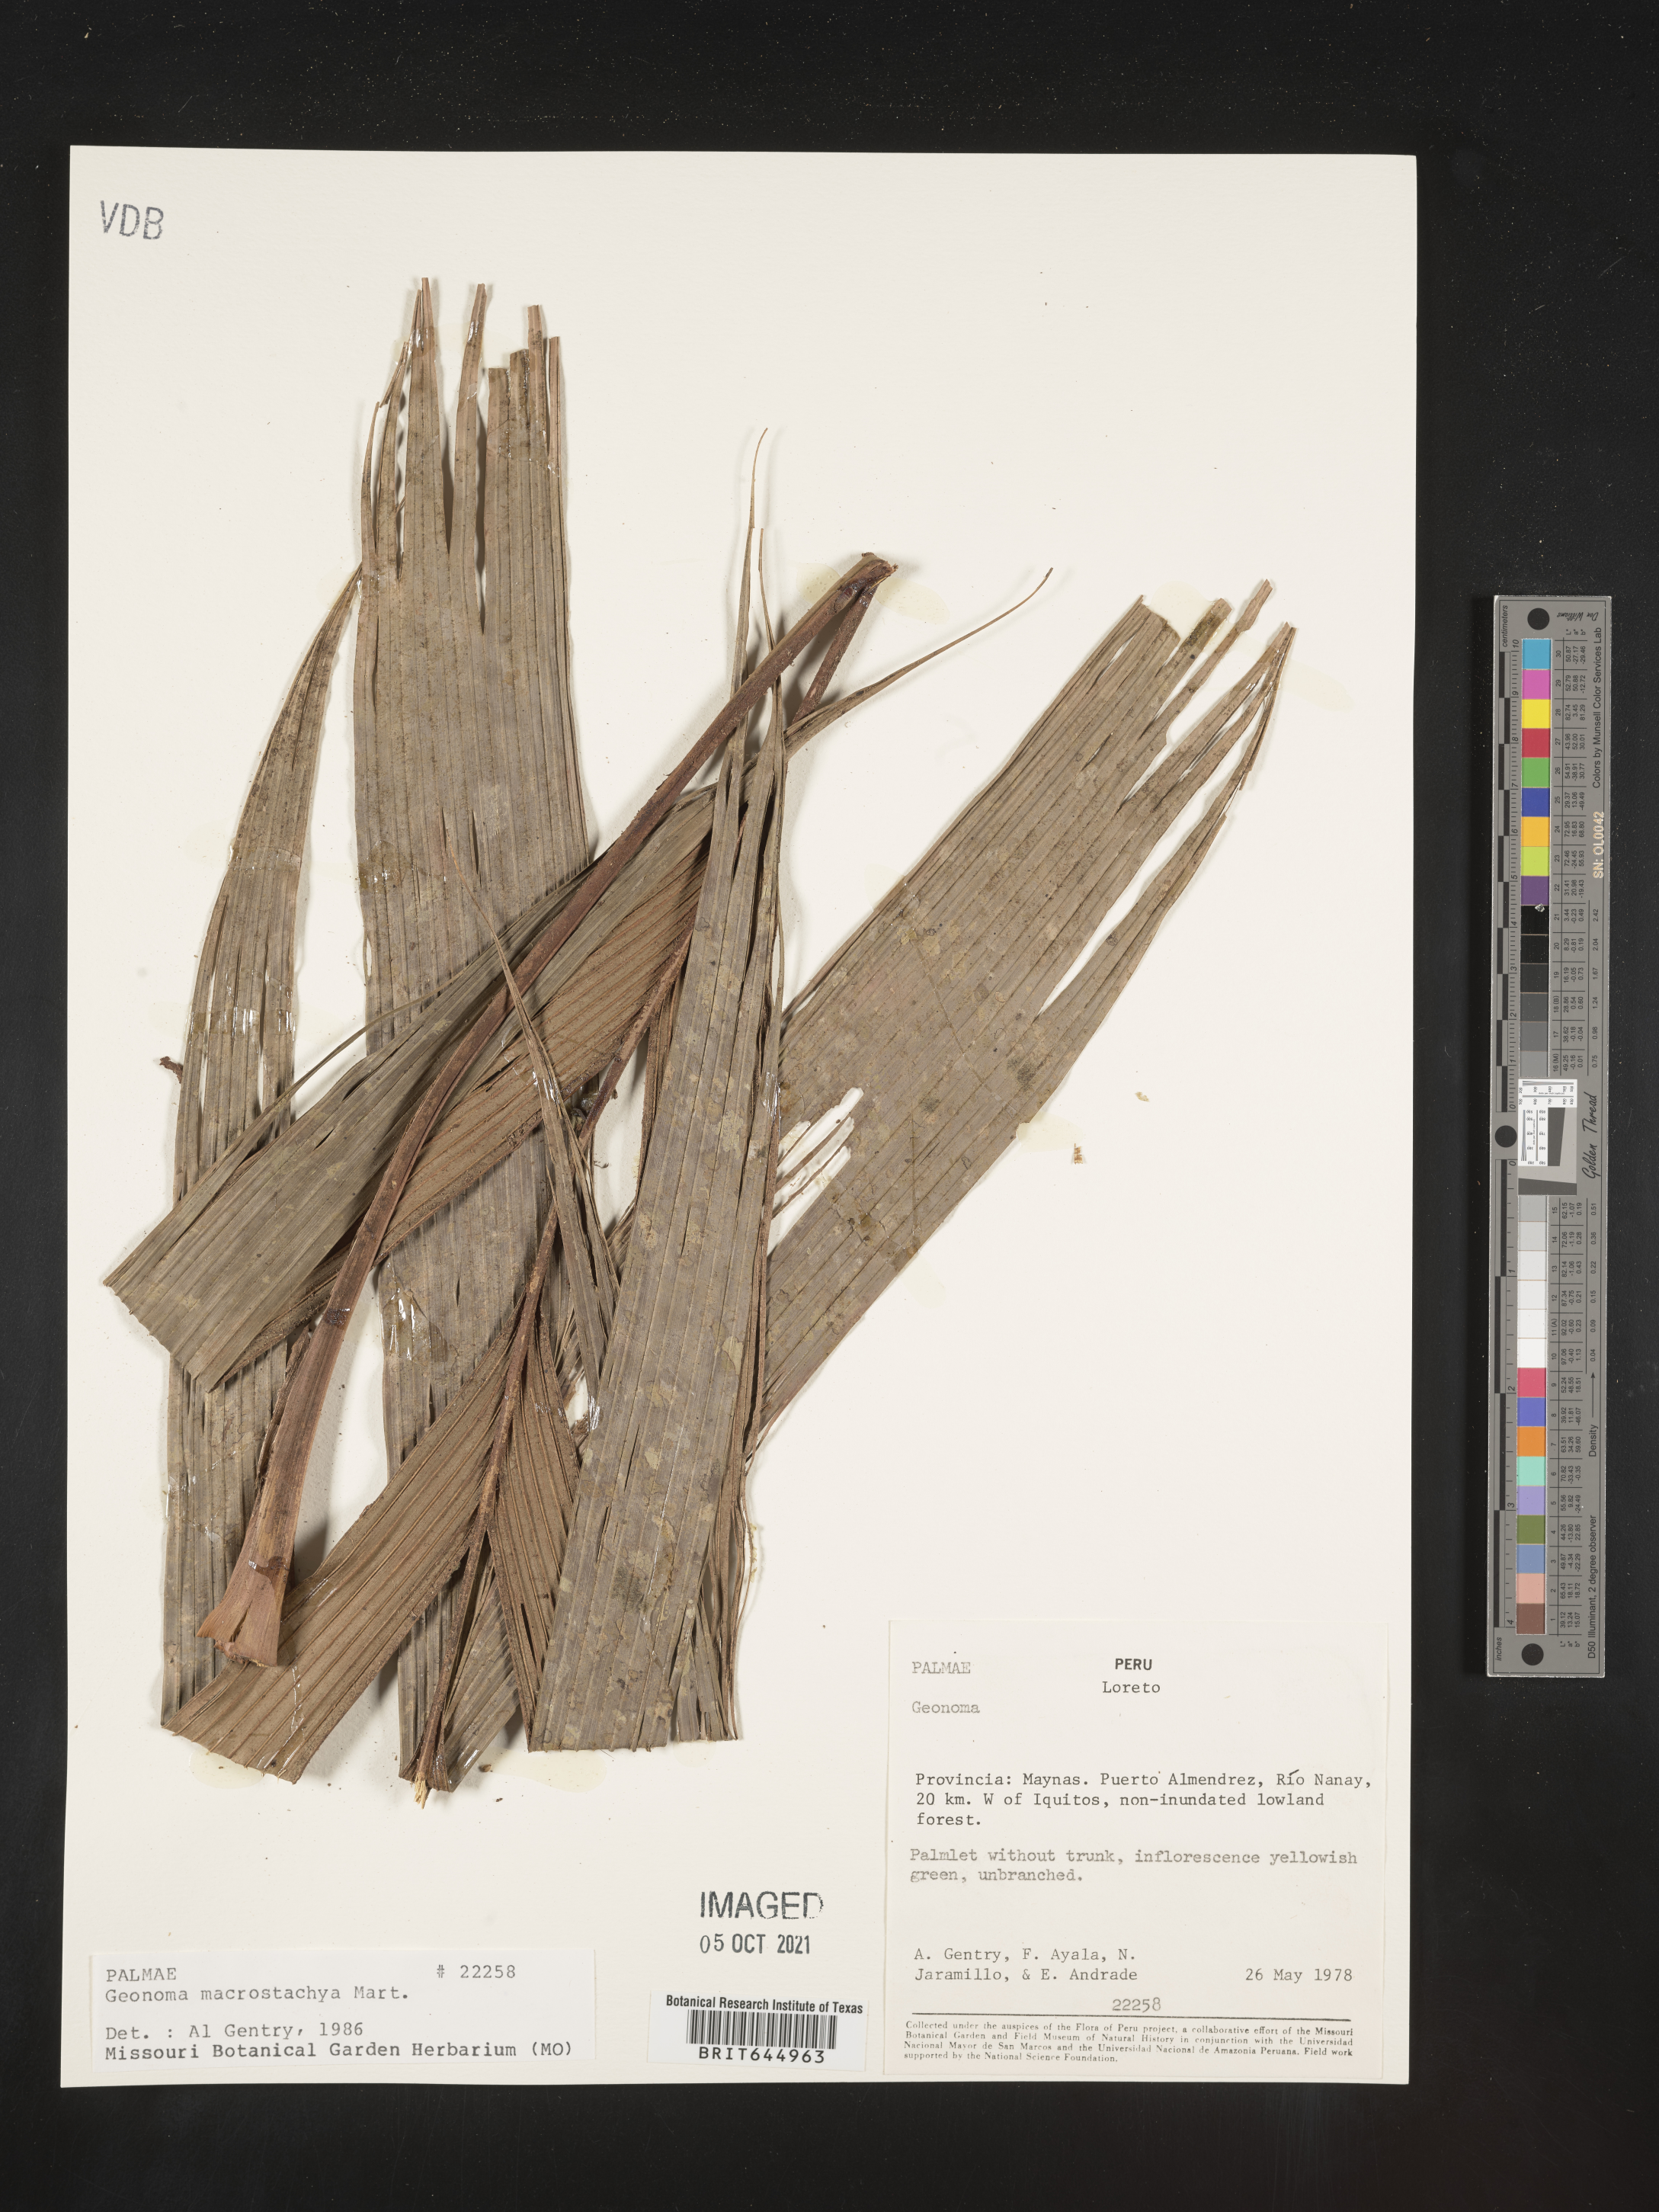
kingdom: Plantae
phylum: Tracheophyta
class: Liliopsida
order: Arecales
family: Arecaceae
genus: Geonoma
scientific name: Geonoma macrostachys
